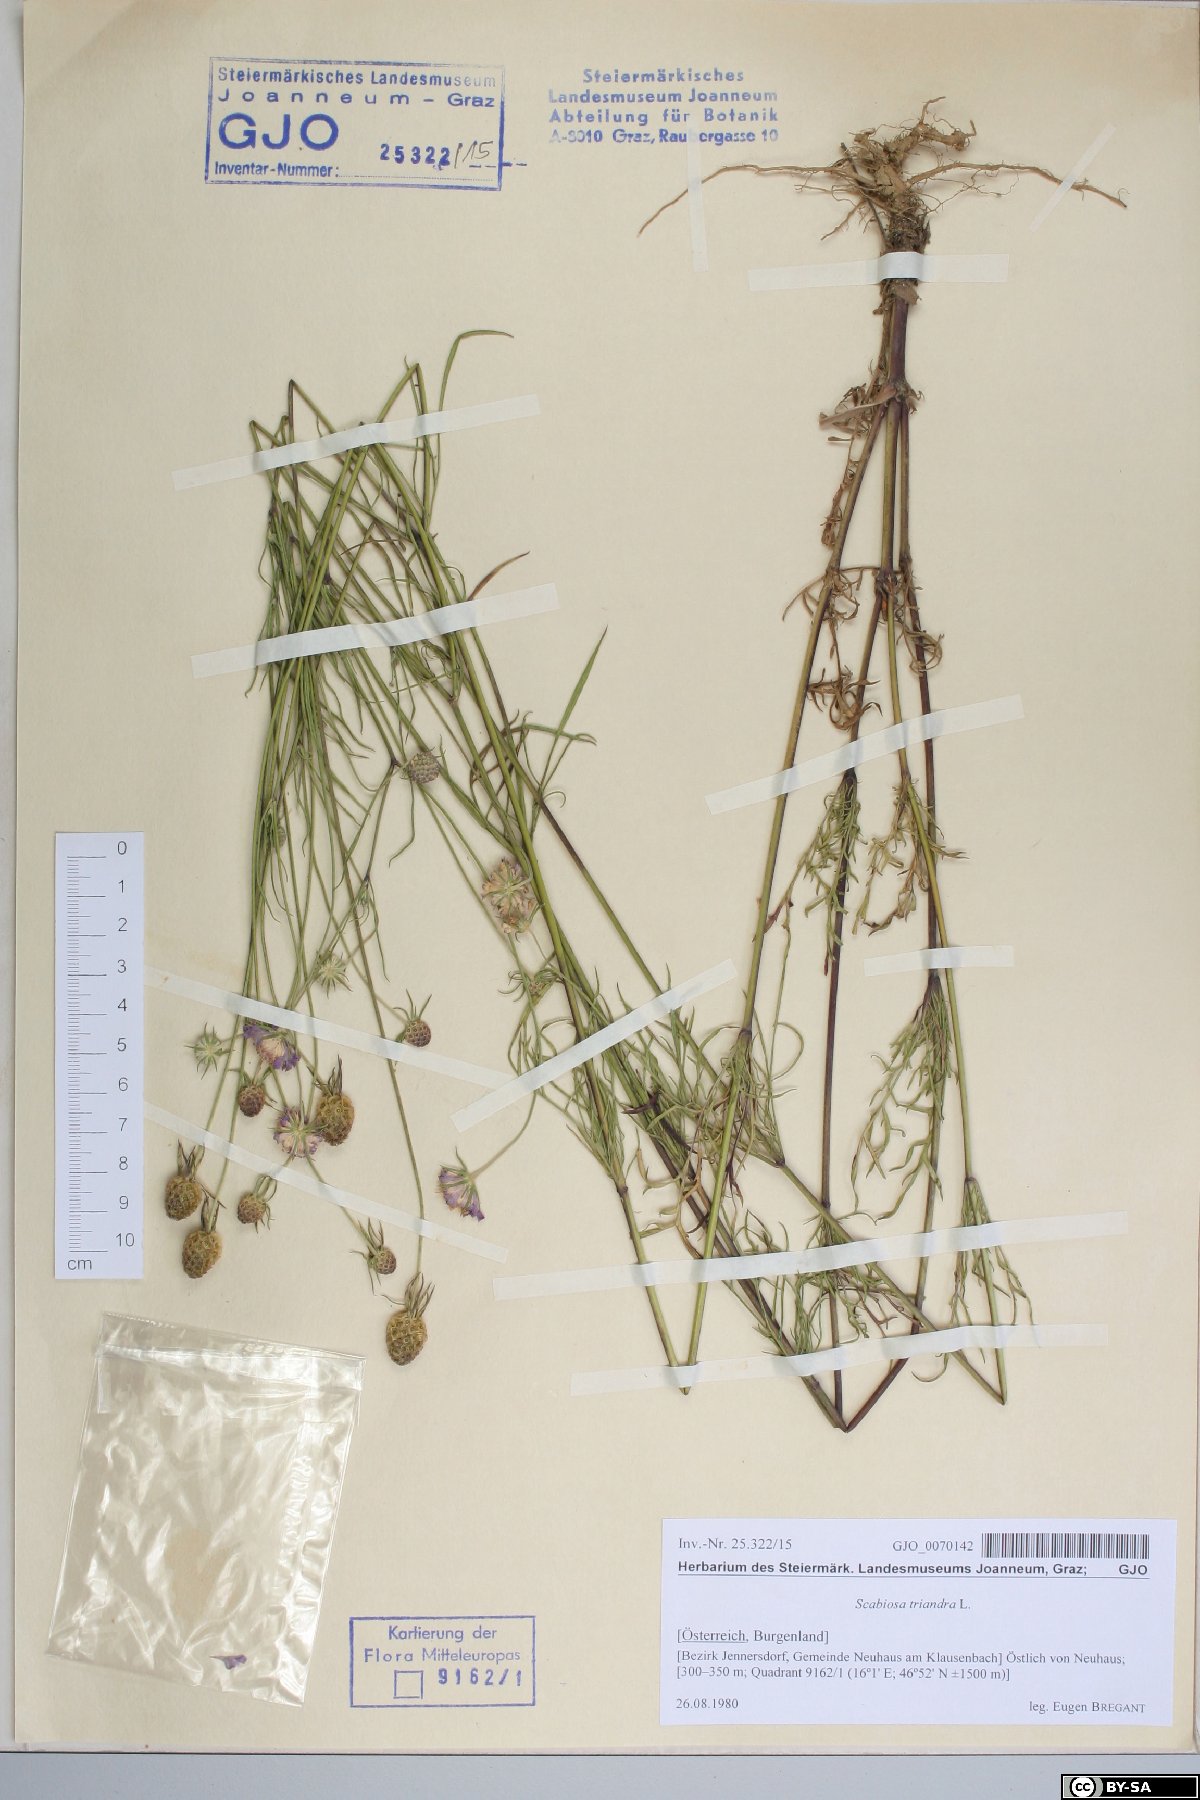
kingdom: Plantae
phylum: Tracheophyta
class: Magnoliopsida
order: Dipsacales
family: Caprifoliaceae
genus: Scabiosa
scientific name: Scabiosa triandra
